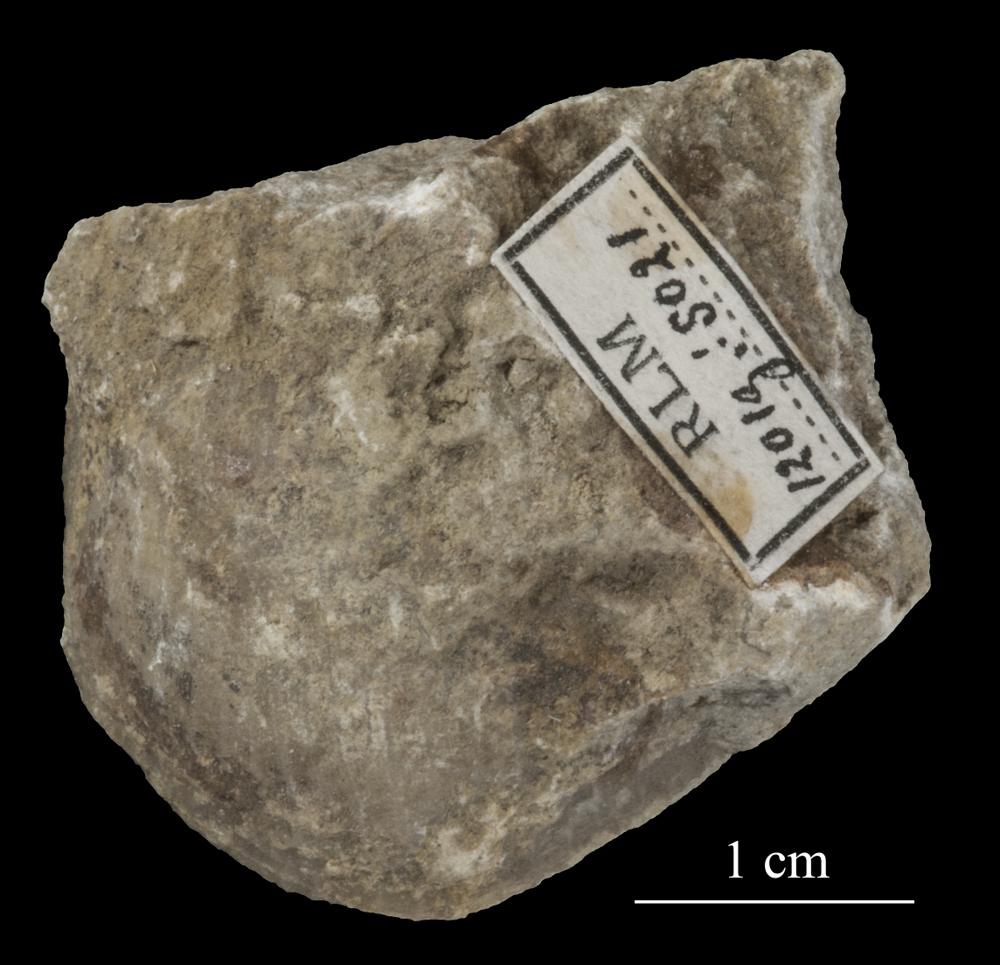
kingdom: Animalia
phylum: Brachiopoda
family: Strophomenidae
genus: Tallinnites
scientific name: Tallinnites Oepikina imbrexoidea
